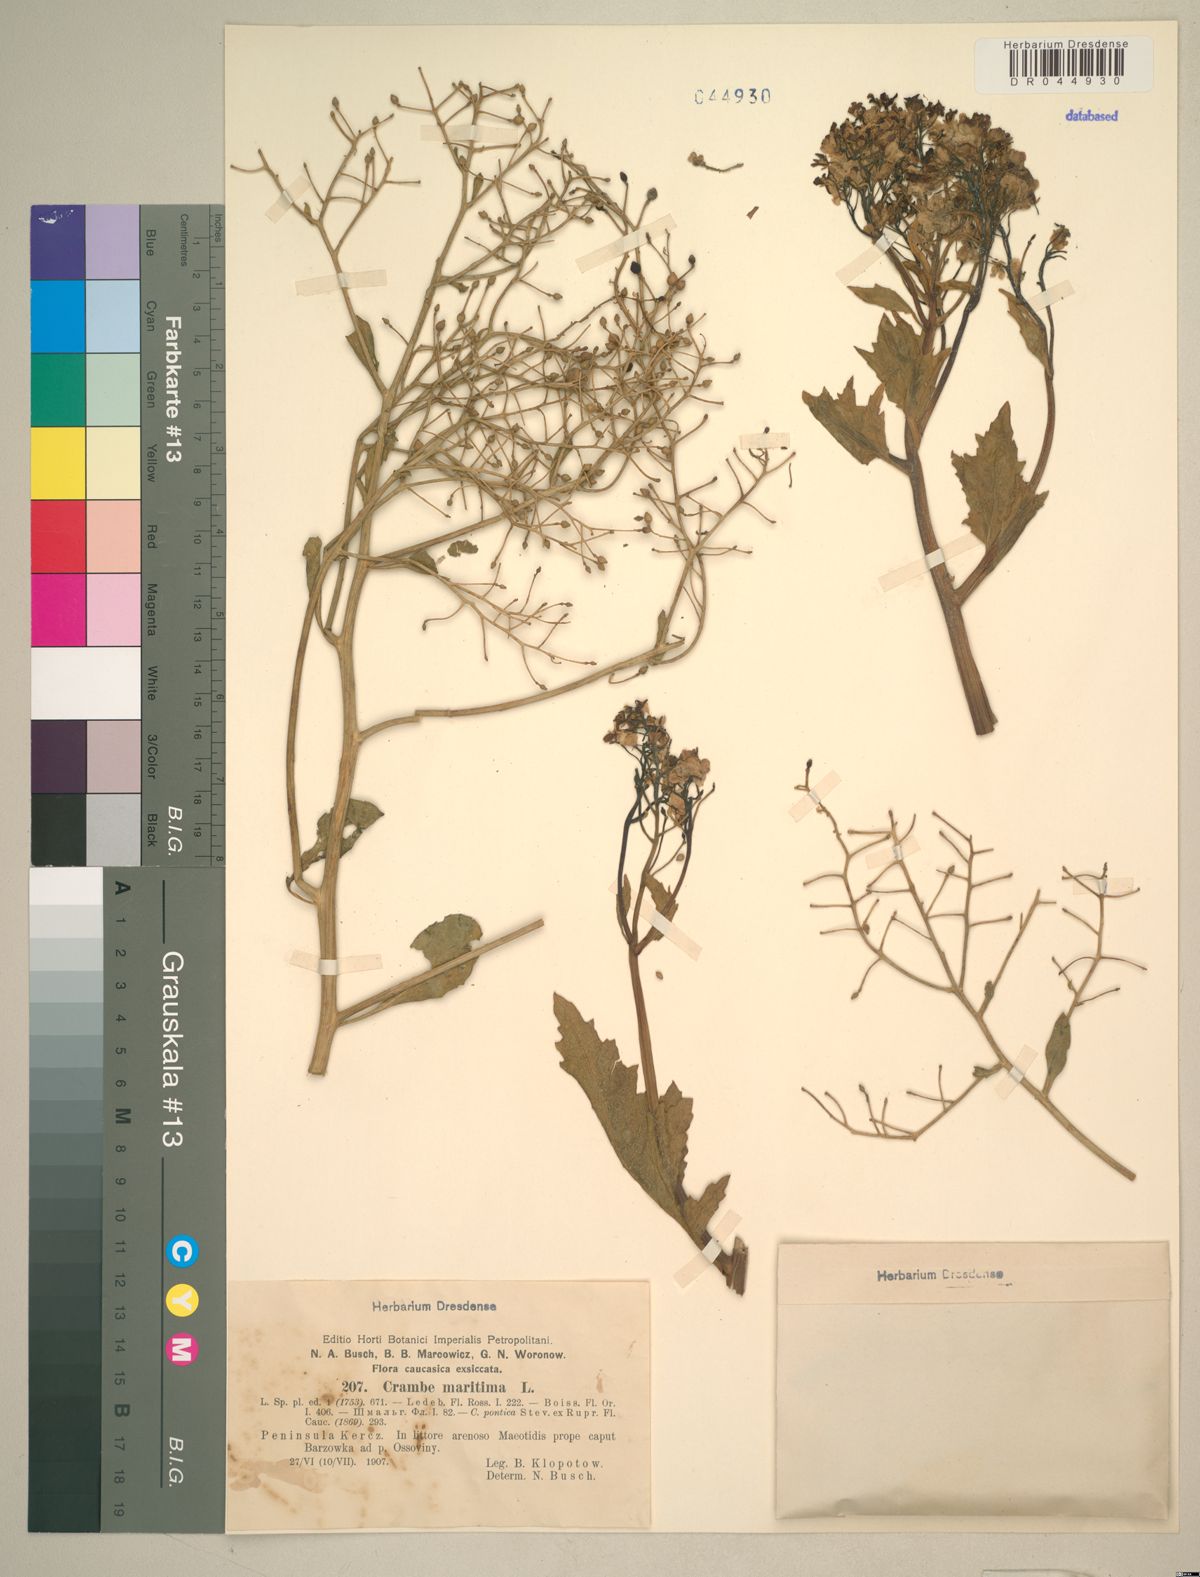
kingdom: Plantae
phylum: Tracheophyta
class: Magnoliopsida
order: Brassicales
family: Brassicaceae
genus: Crambe
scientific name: Crambe maritima
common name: Sea-kale
